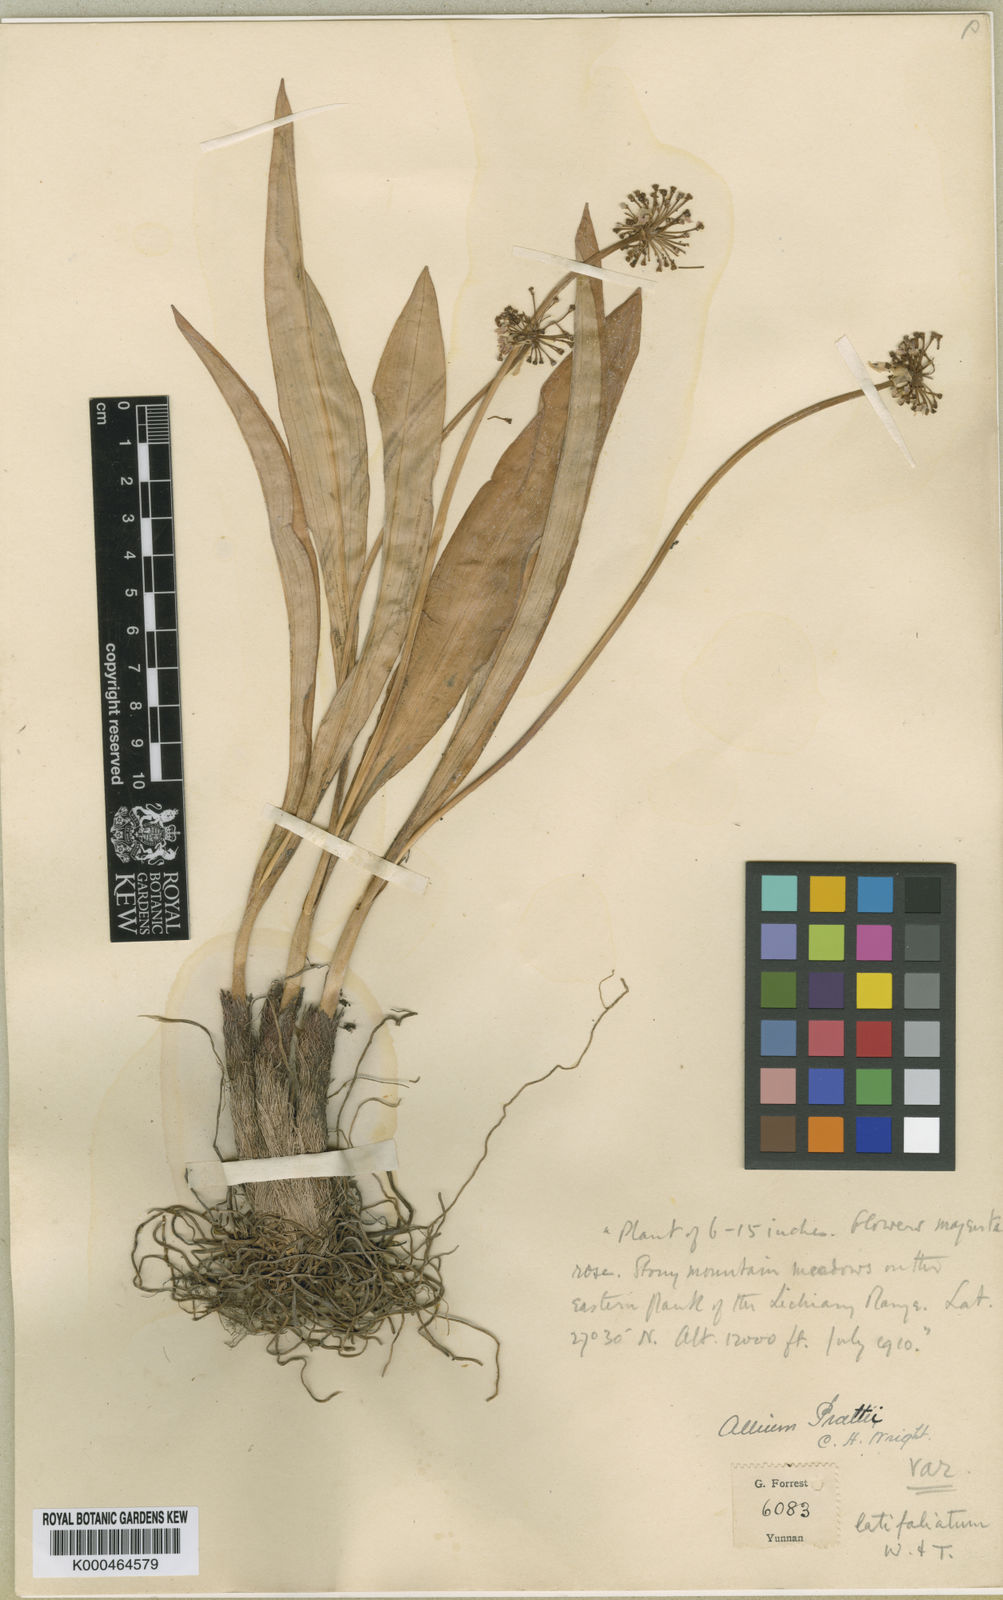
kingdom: Plantae
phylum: Tracheophyta
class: Liliopsida
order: Asparagales
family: Amaryllidaceae
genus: Allium
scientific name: Allium prattii
